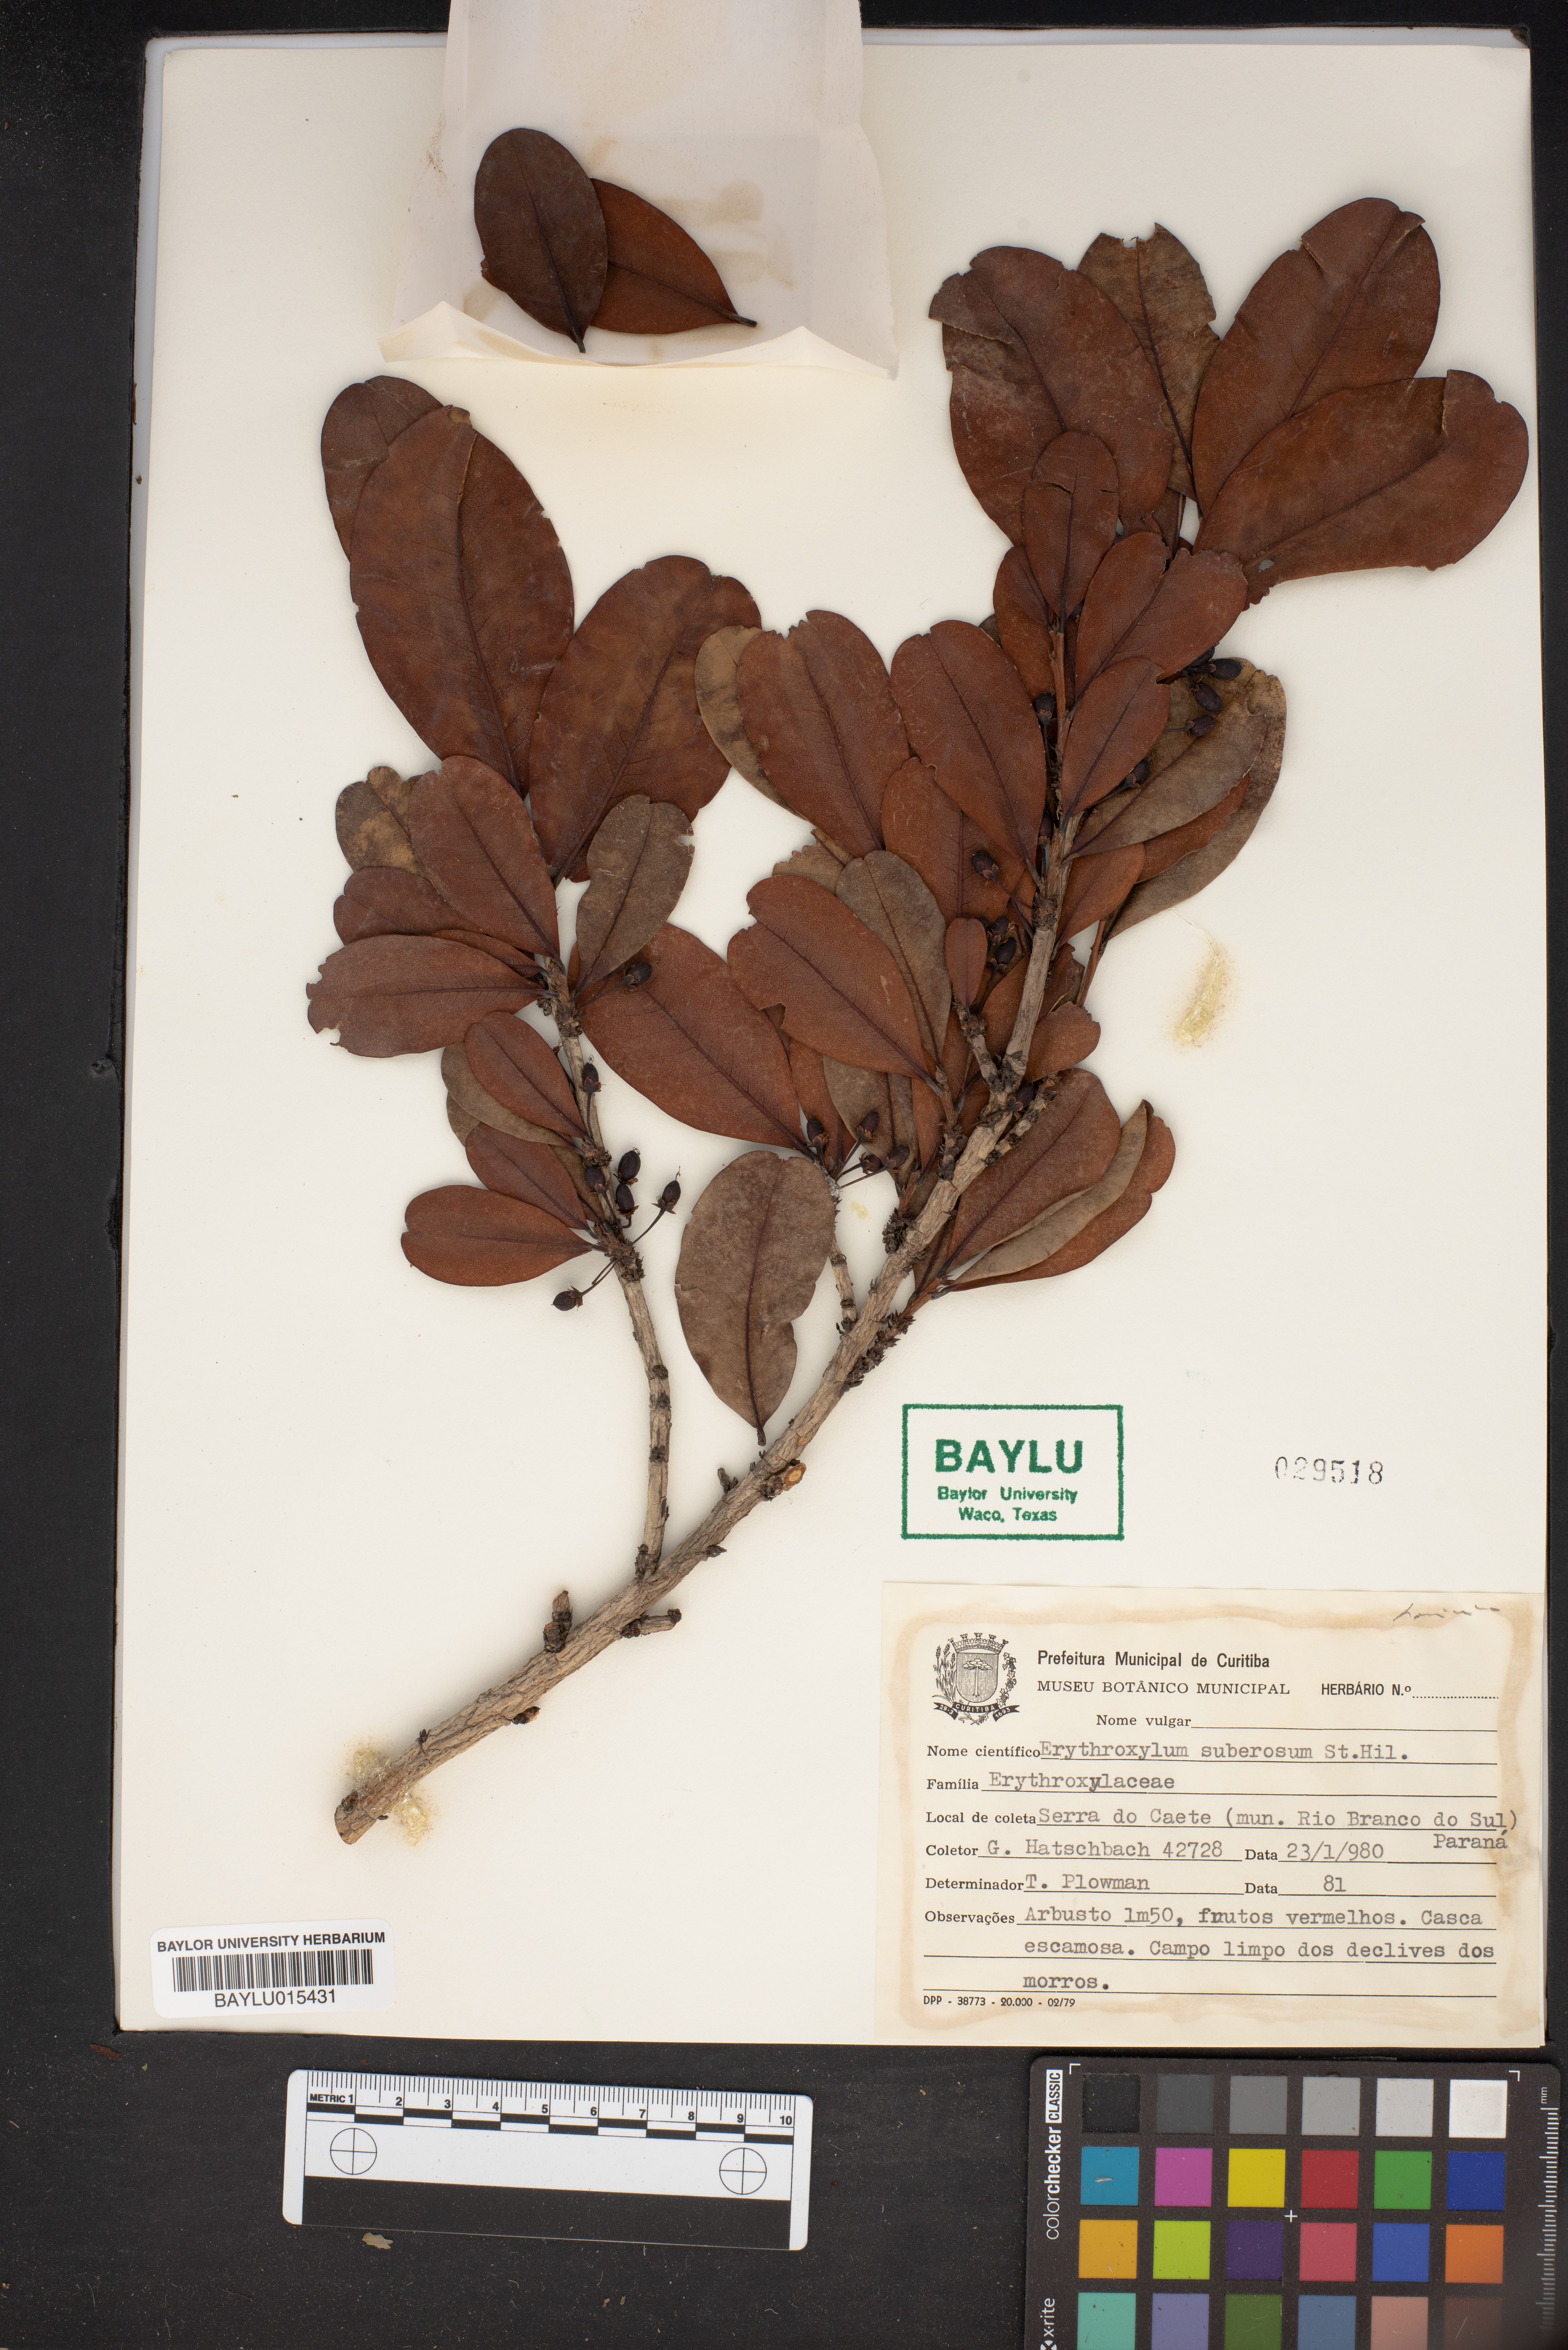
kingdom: Plantae
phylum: Tracheophyta
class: Magnoliopsida
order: Malpighiales
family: Erythroxylaceae
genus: Erythroxylum
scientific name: Erythroxylum suberosum
